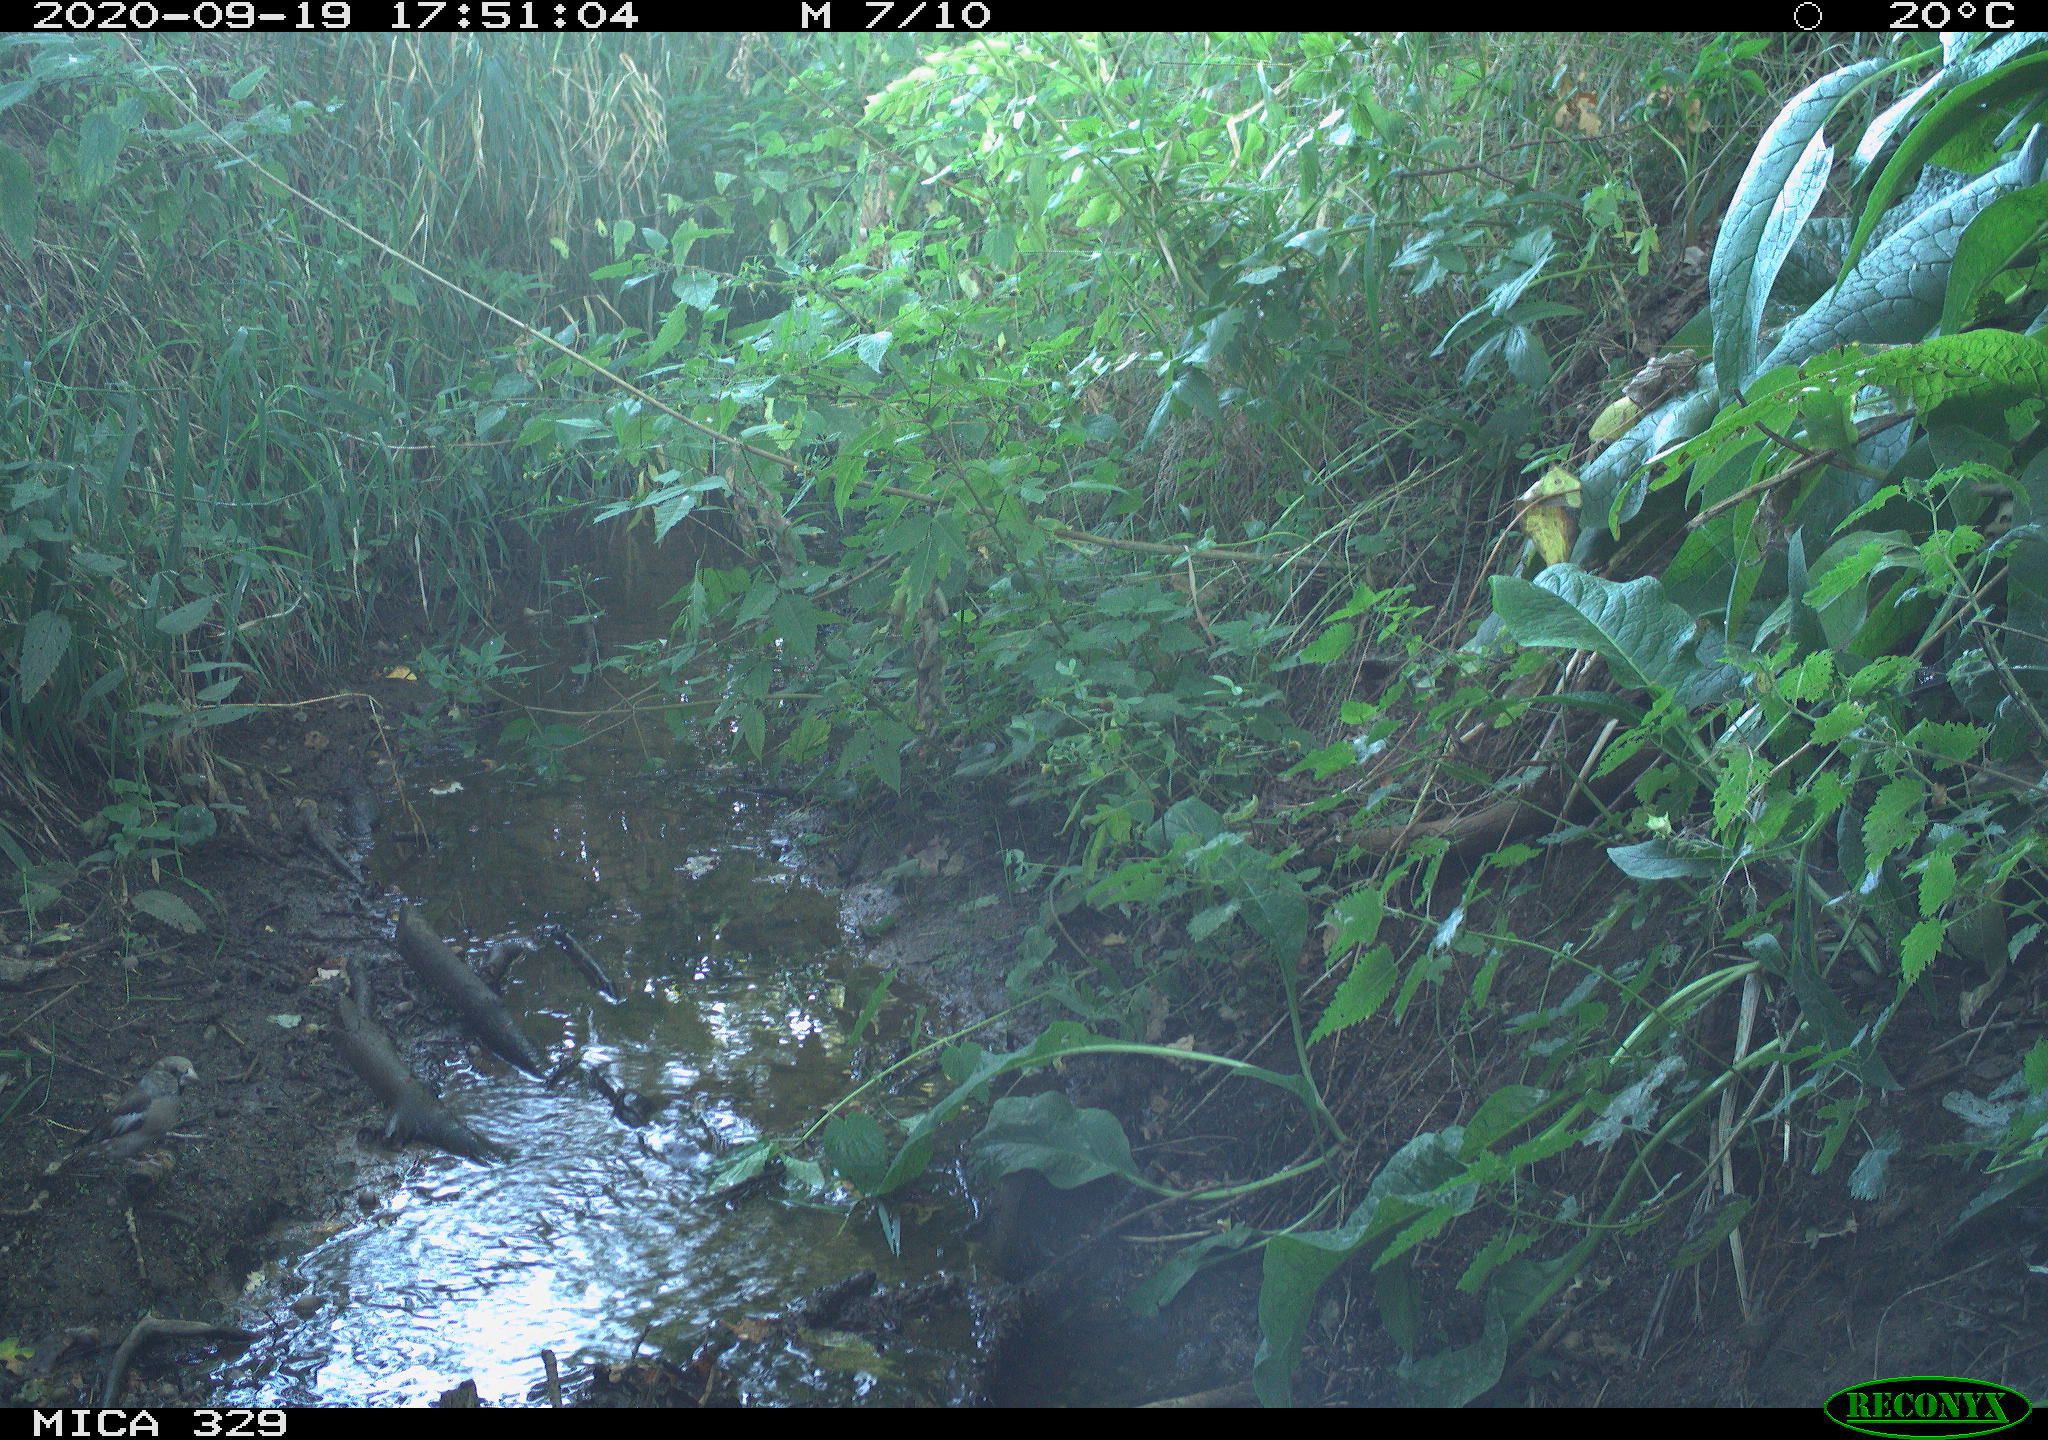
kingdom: Animalia
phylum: Chordata
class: Aves
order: Passeriformes
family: Fringillidae
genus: Fringilla
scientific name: Fringilla coelebs
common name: Common chaffinch
